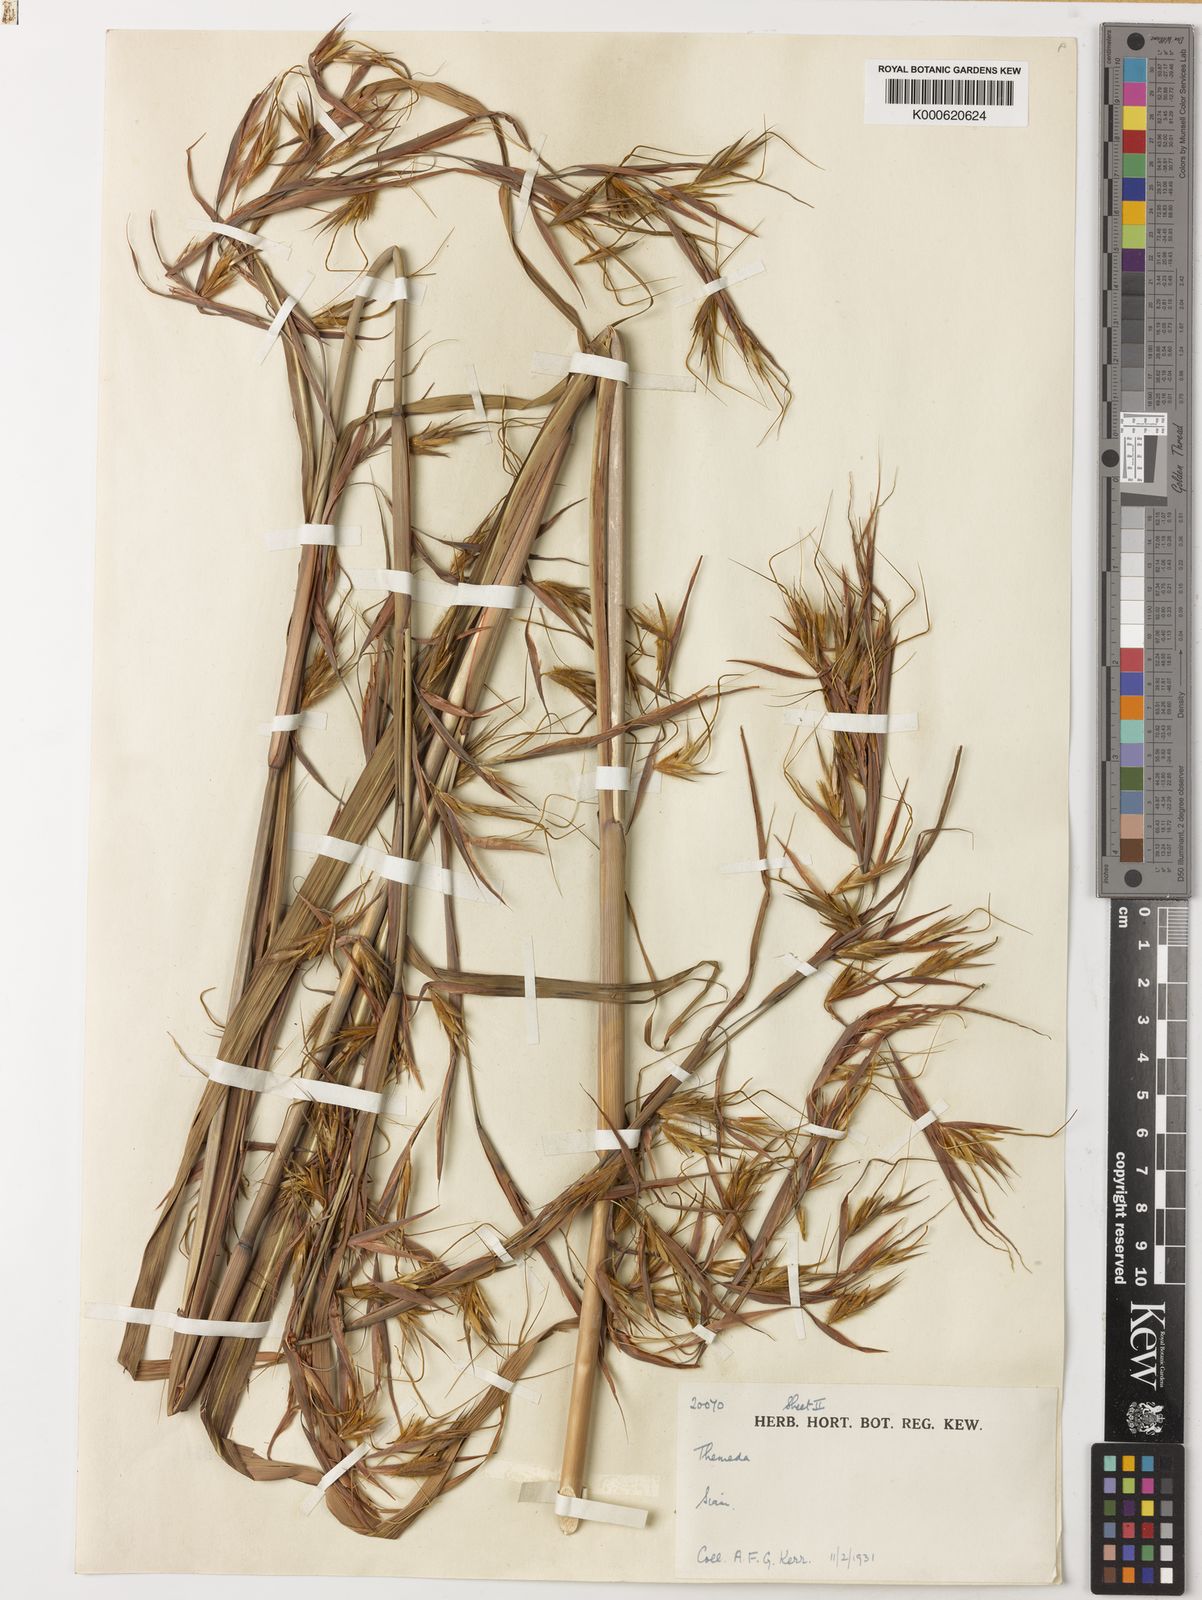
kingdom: Plantae
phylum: Tracheophyta
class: Liliopsida
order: Poales
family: Poaceae
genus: Themeda
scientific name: Themeda arundinacea
